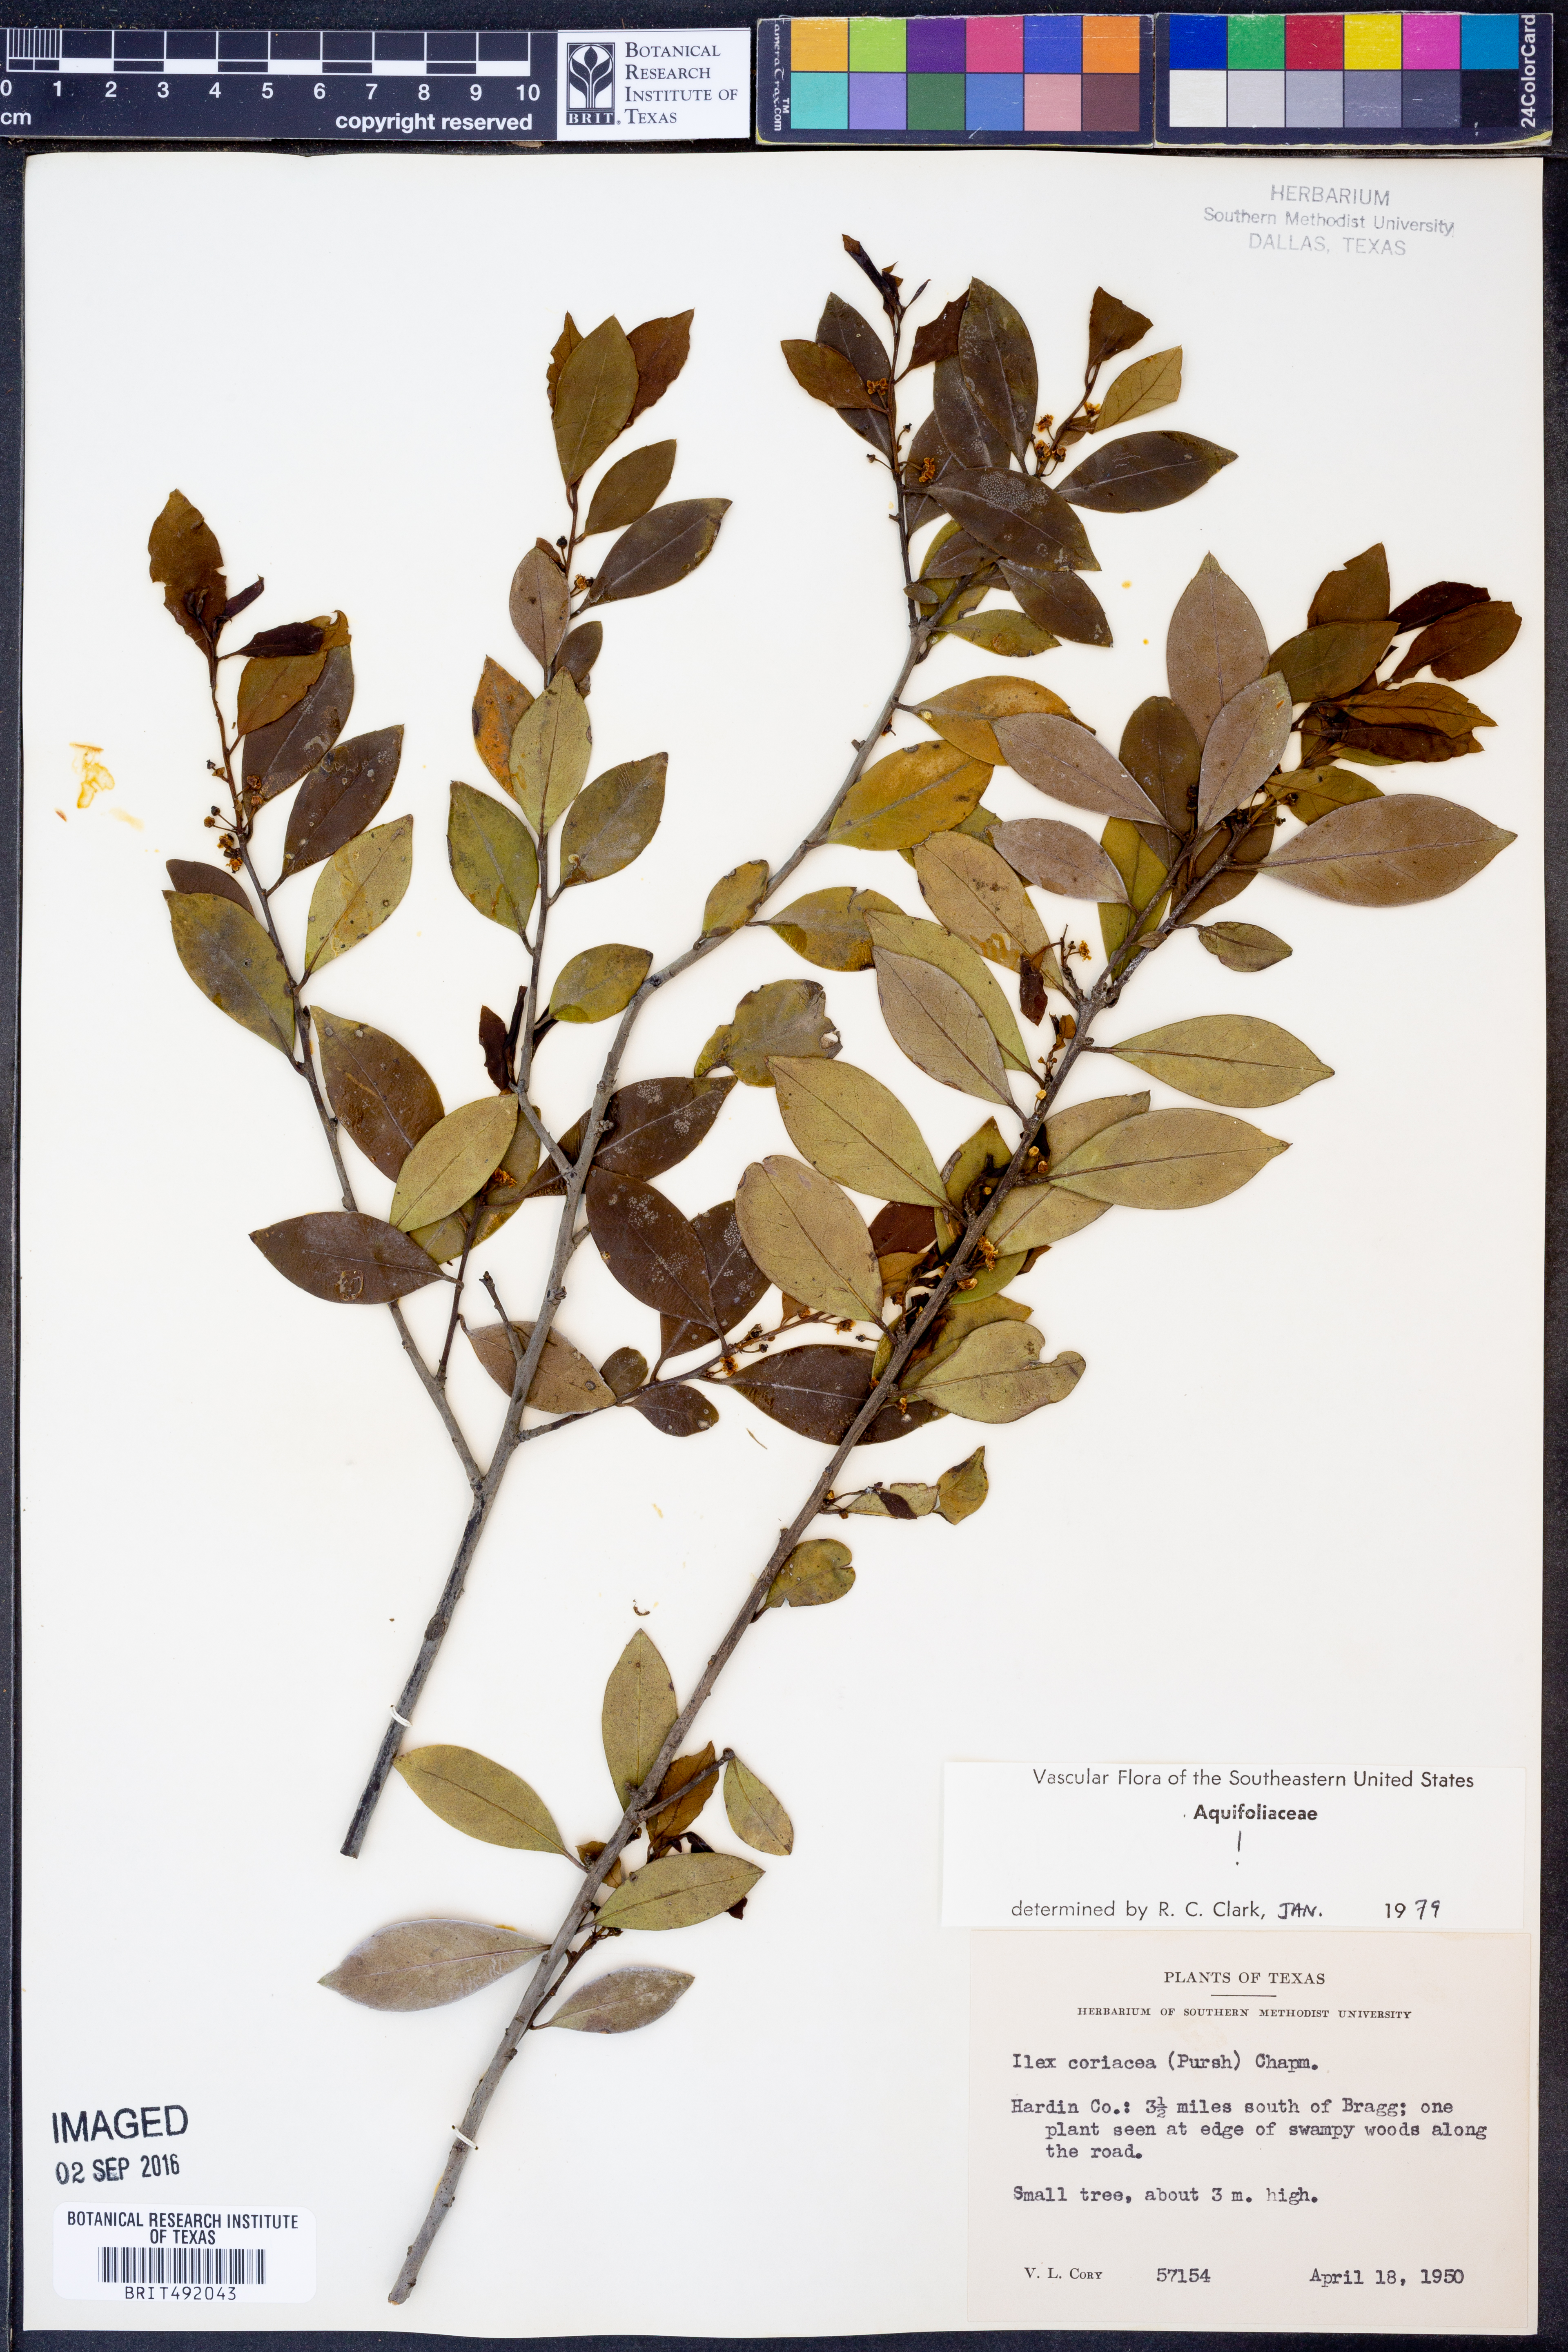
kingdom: Plantae
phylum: Tracheophyta
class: Magnoliopsida
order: Aquifoliales
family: Aquifoliaceae
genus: Ilex
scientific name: Ilex coriacea
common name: Sweet gallberry
